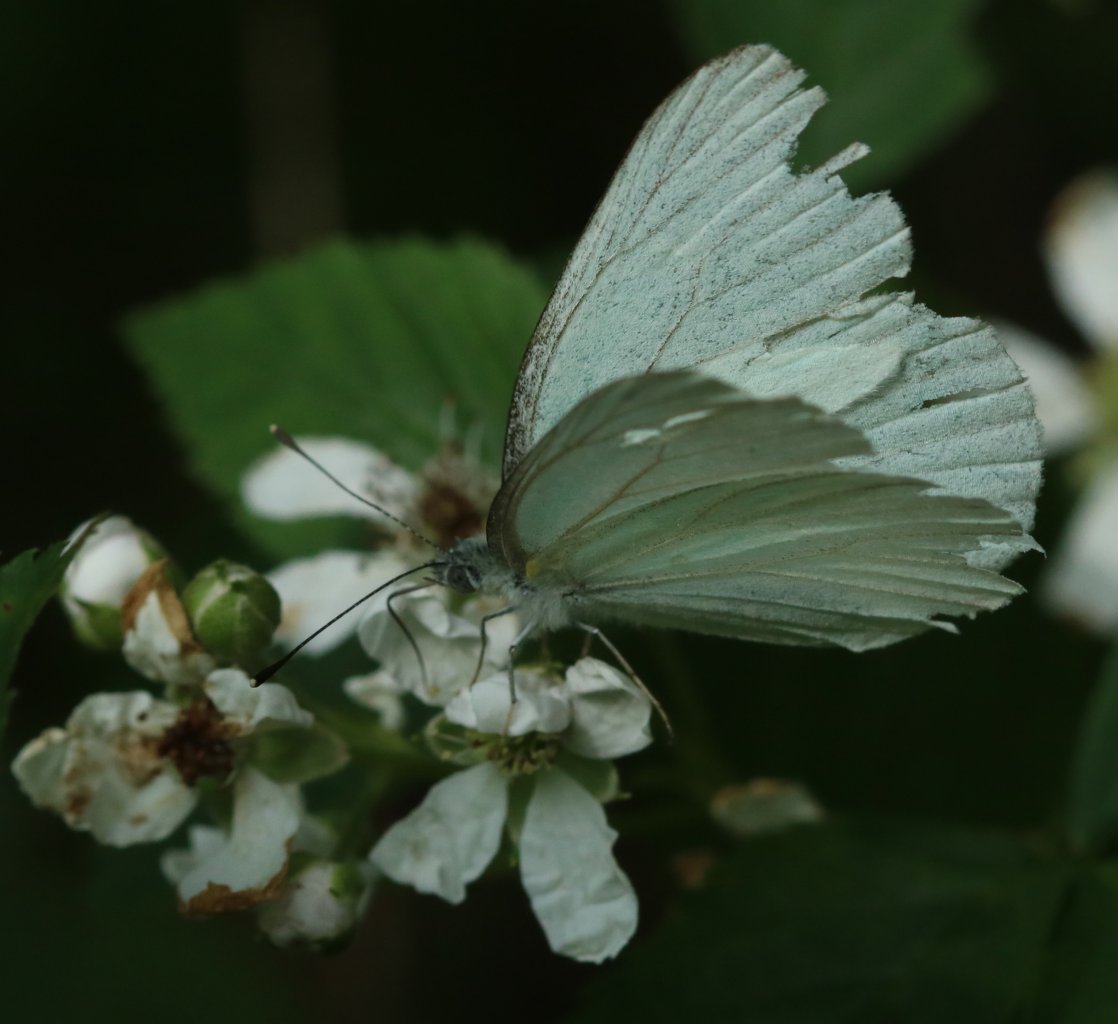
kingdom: Animalia
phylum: Arthropoda
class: Insecta
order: Lepidoptera
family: Pieridae
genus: Pieris
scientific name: Pieris oleracea
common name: Mustard White
